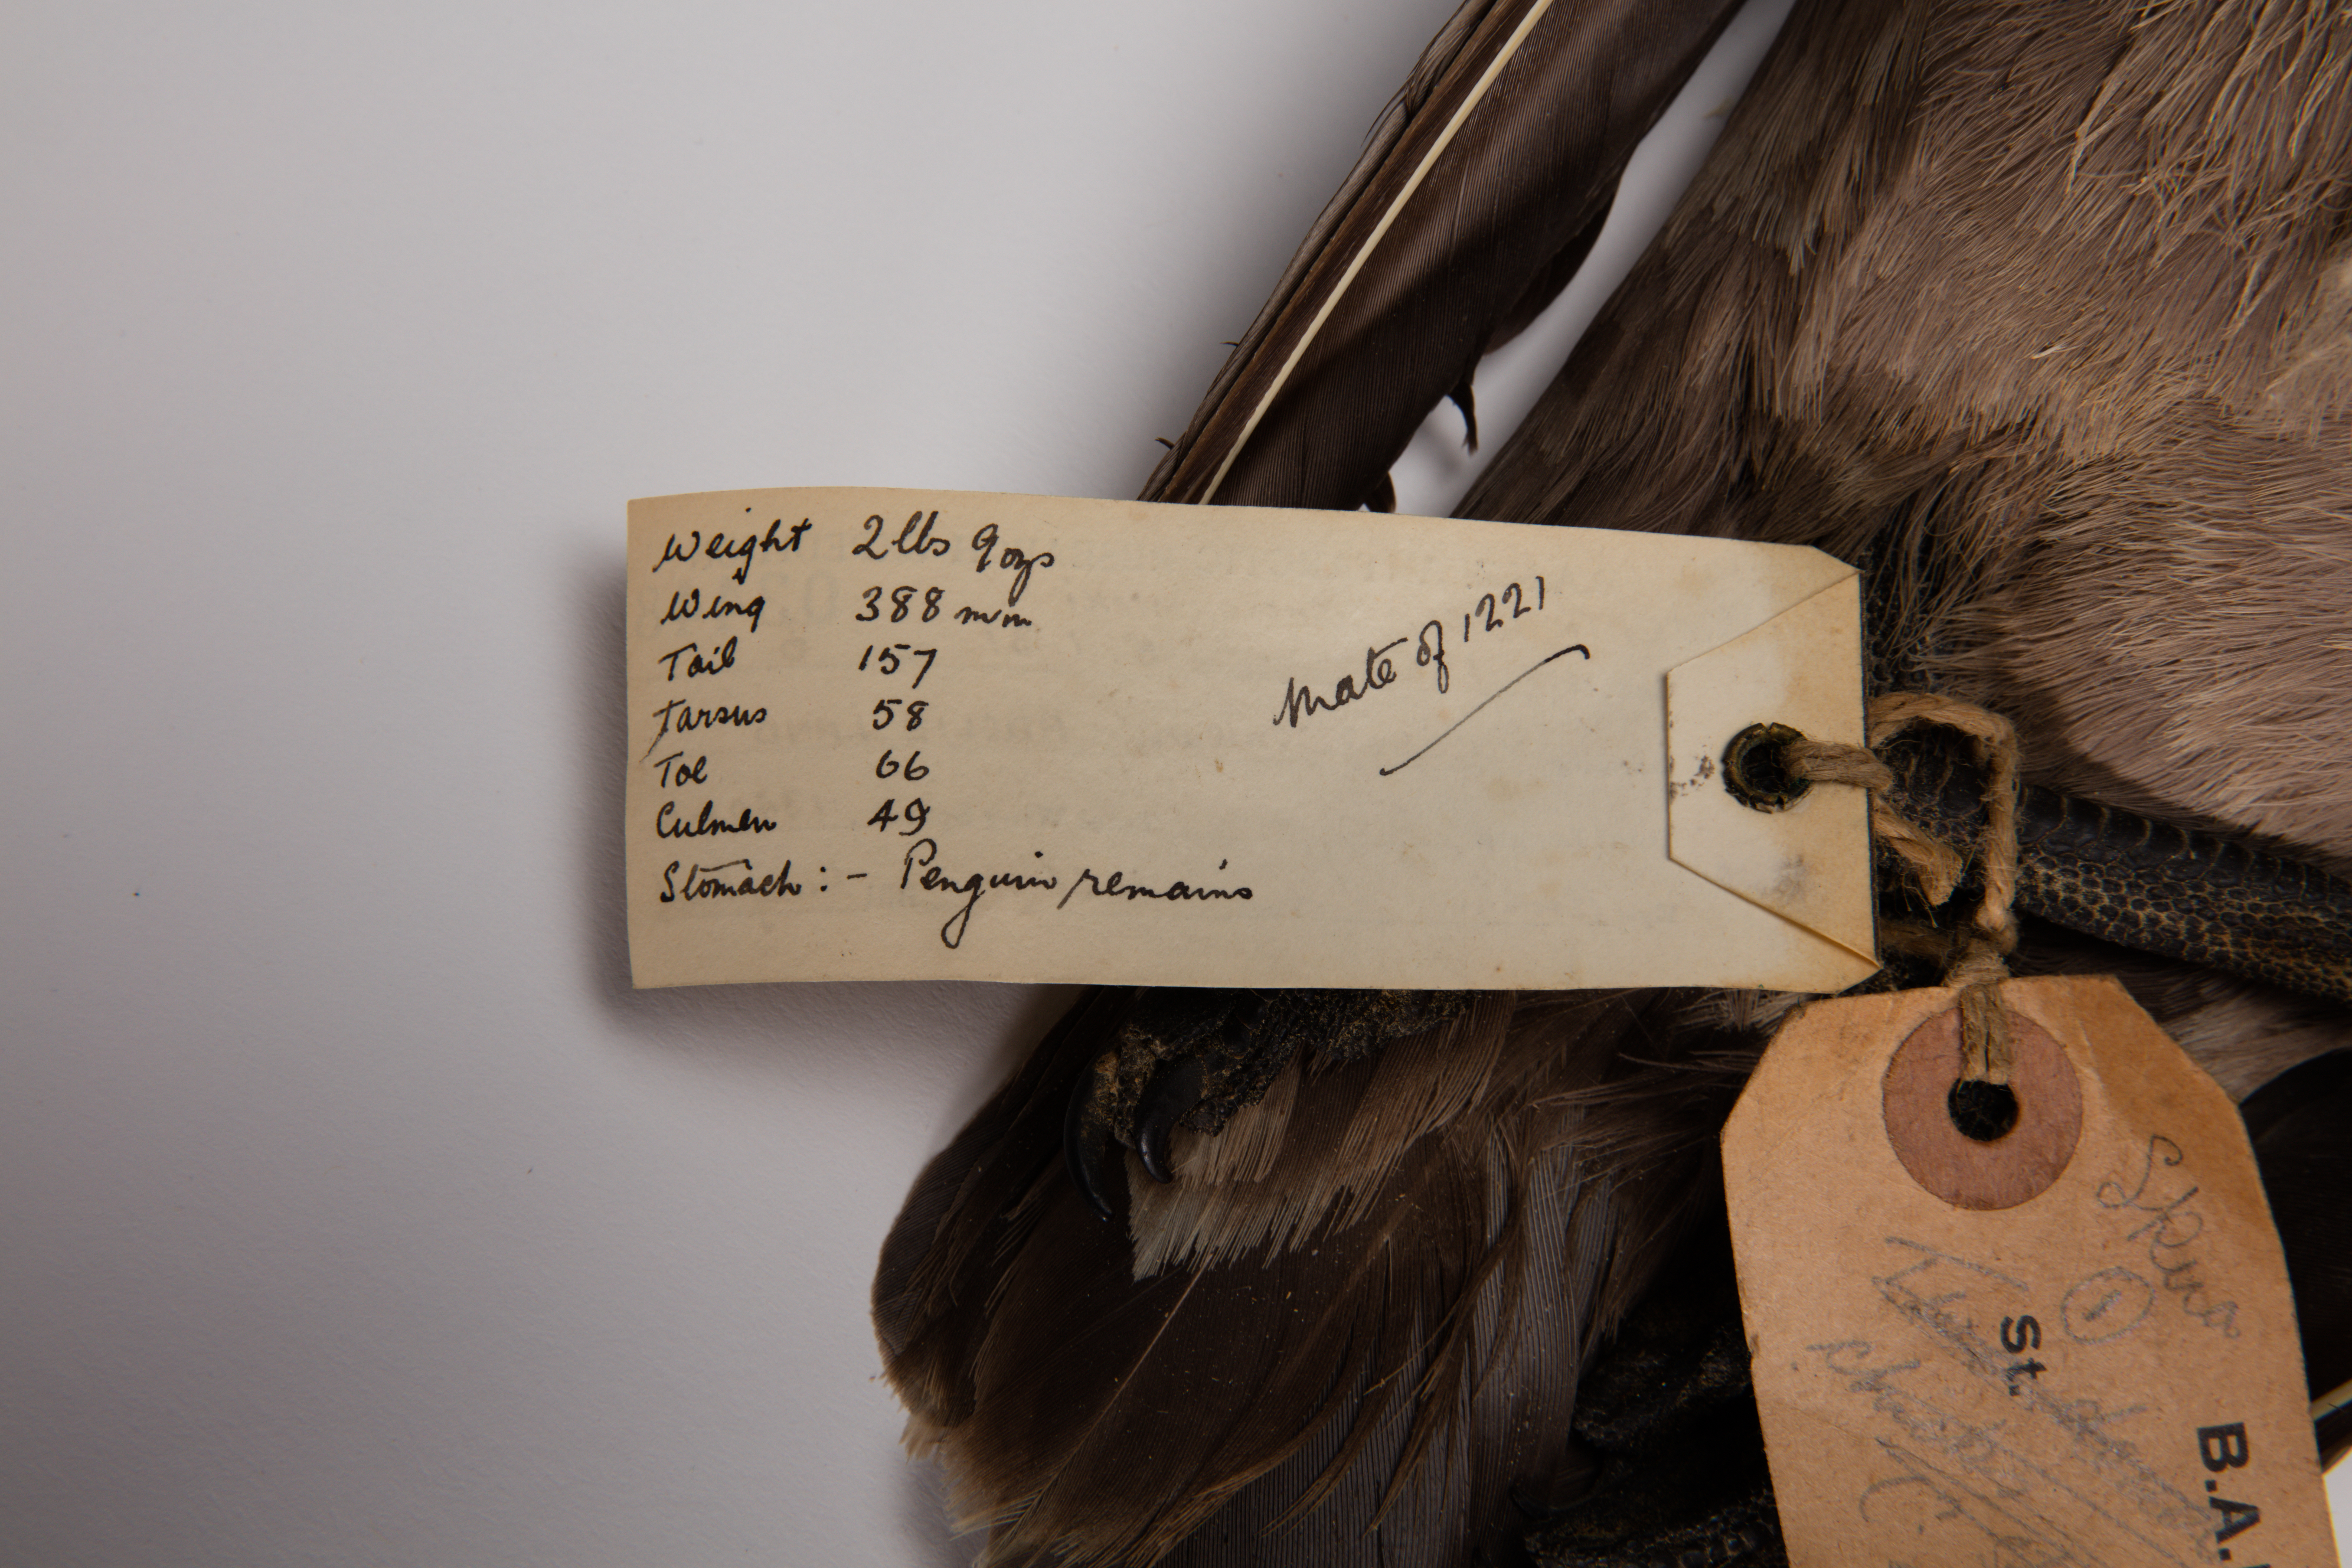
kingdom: Animalia
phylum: Chordata
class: Aves
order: Charadriiformes
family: Stercorariidae
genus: Stercorarius
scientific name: Stercorarius maccormicki
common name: South polar skua
